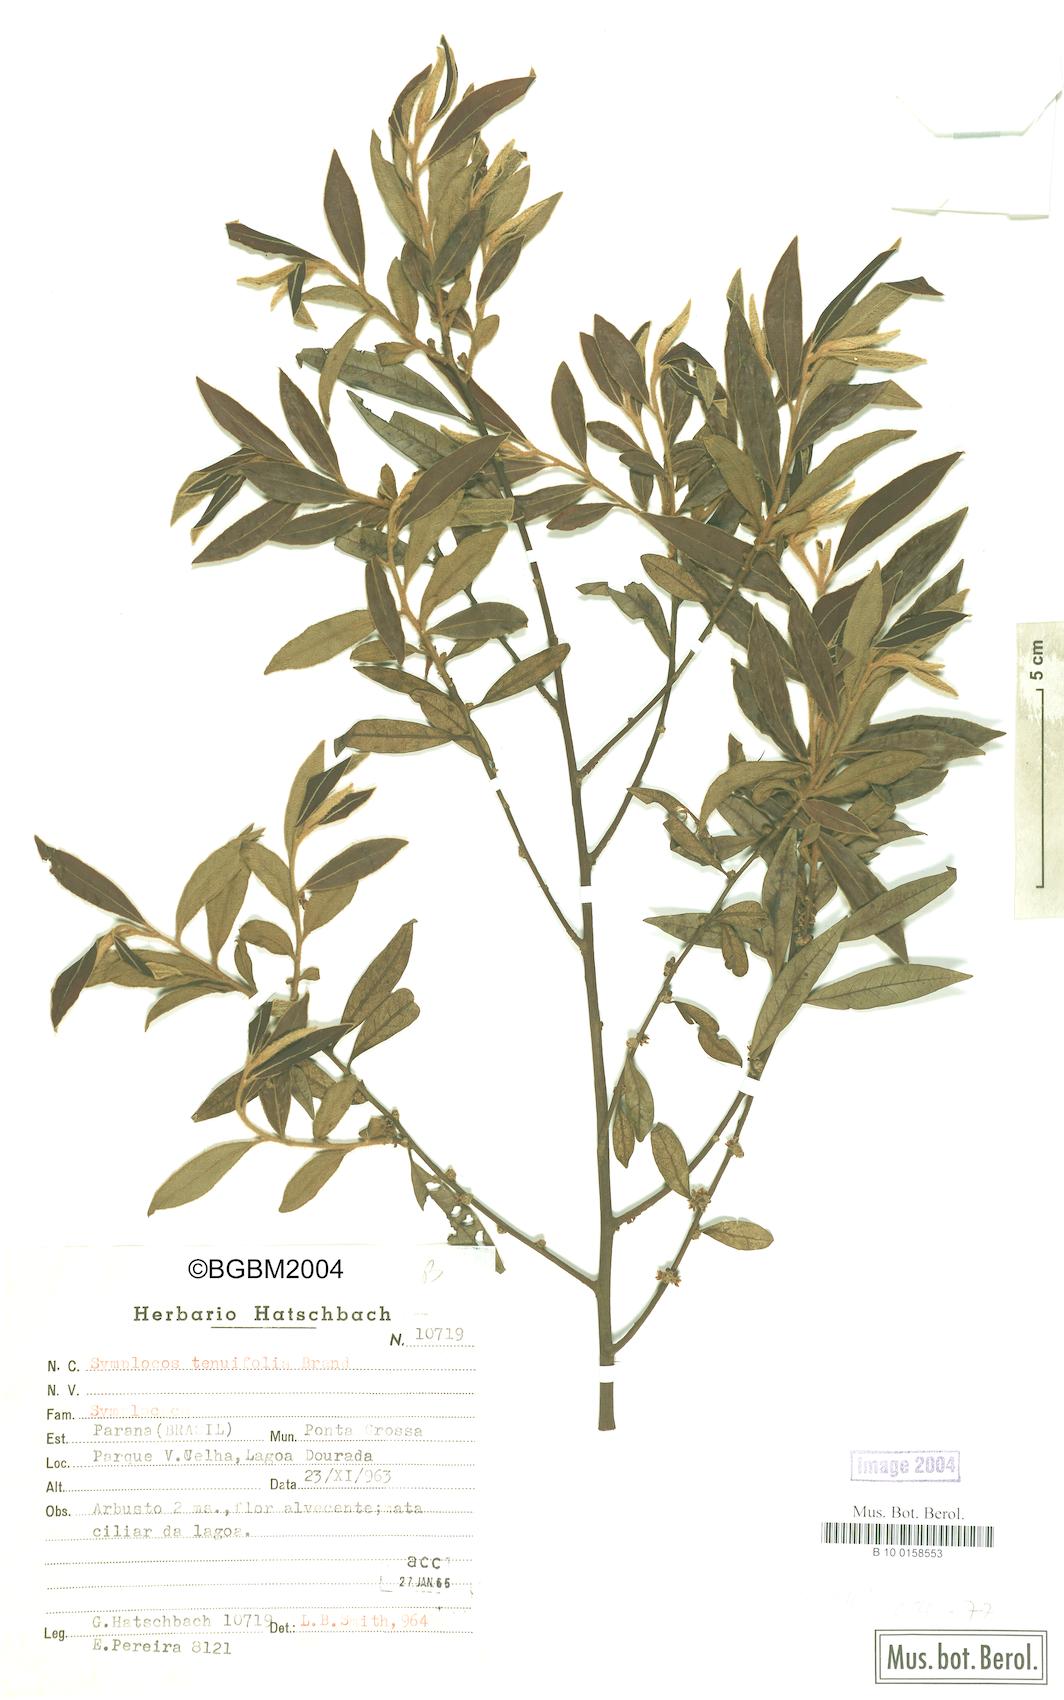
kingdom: Plantae
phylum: Tracheophyta
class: Magnoliopsida
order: Ericales
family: Symplocaceae
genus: Symplocos
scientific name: Symplocos tenuifolia
